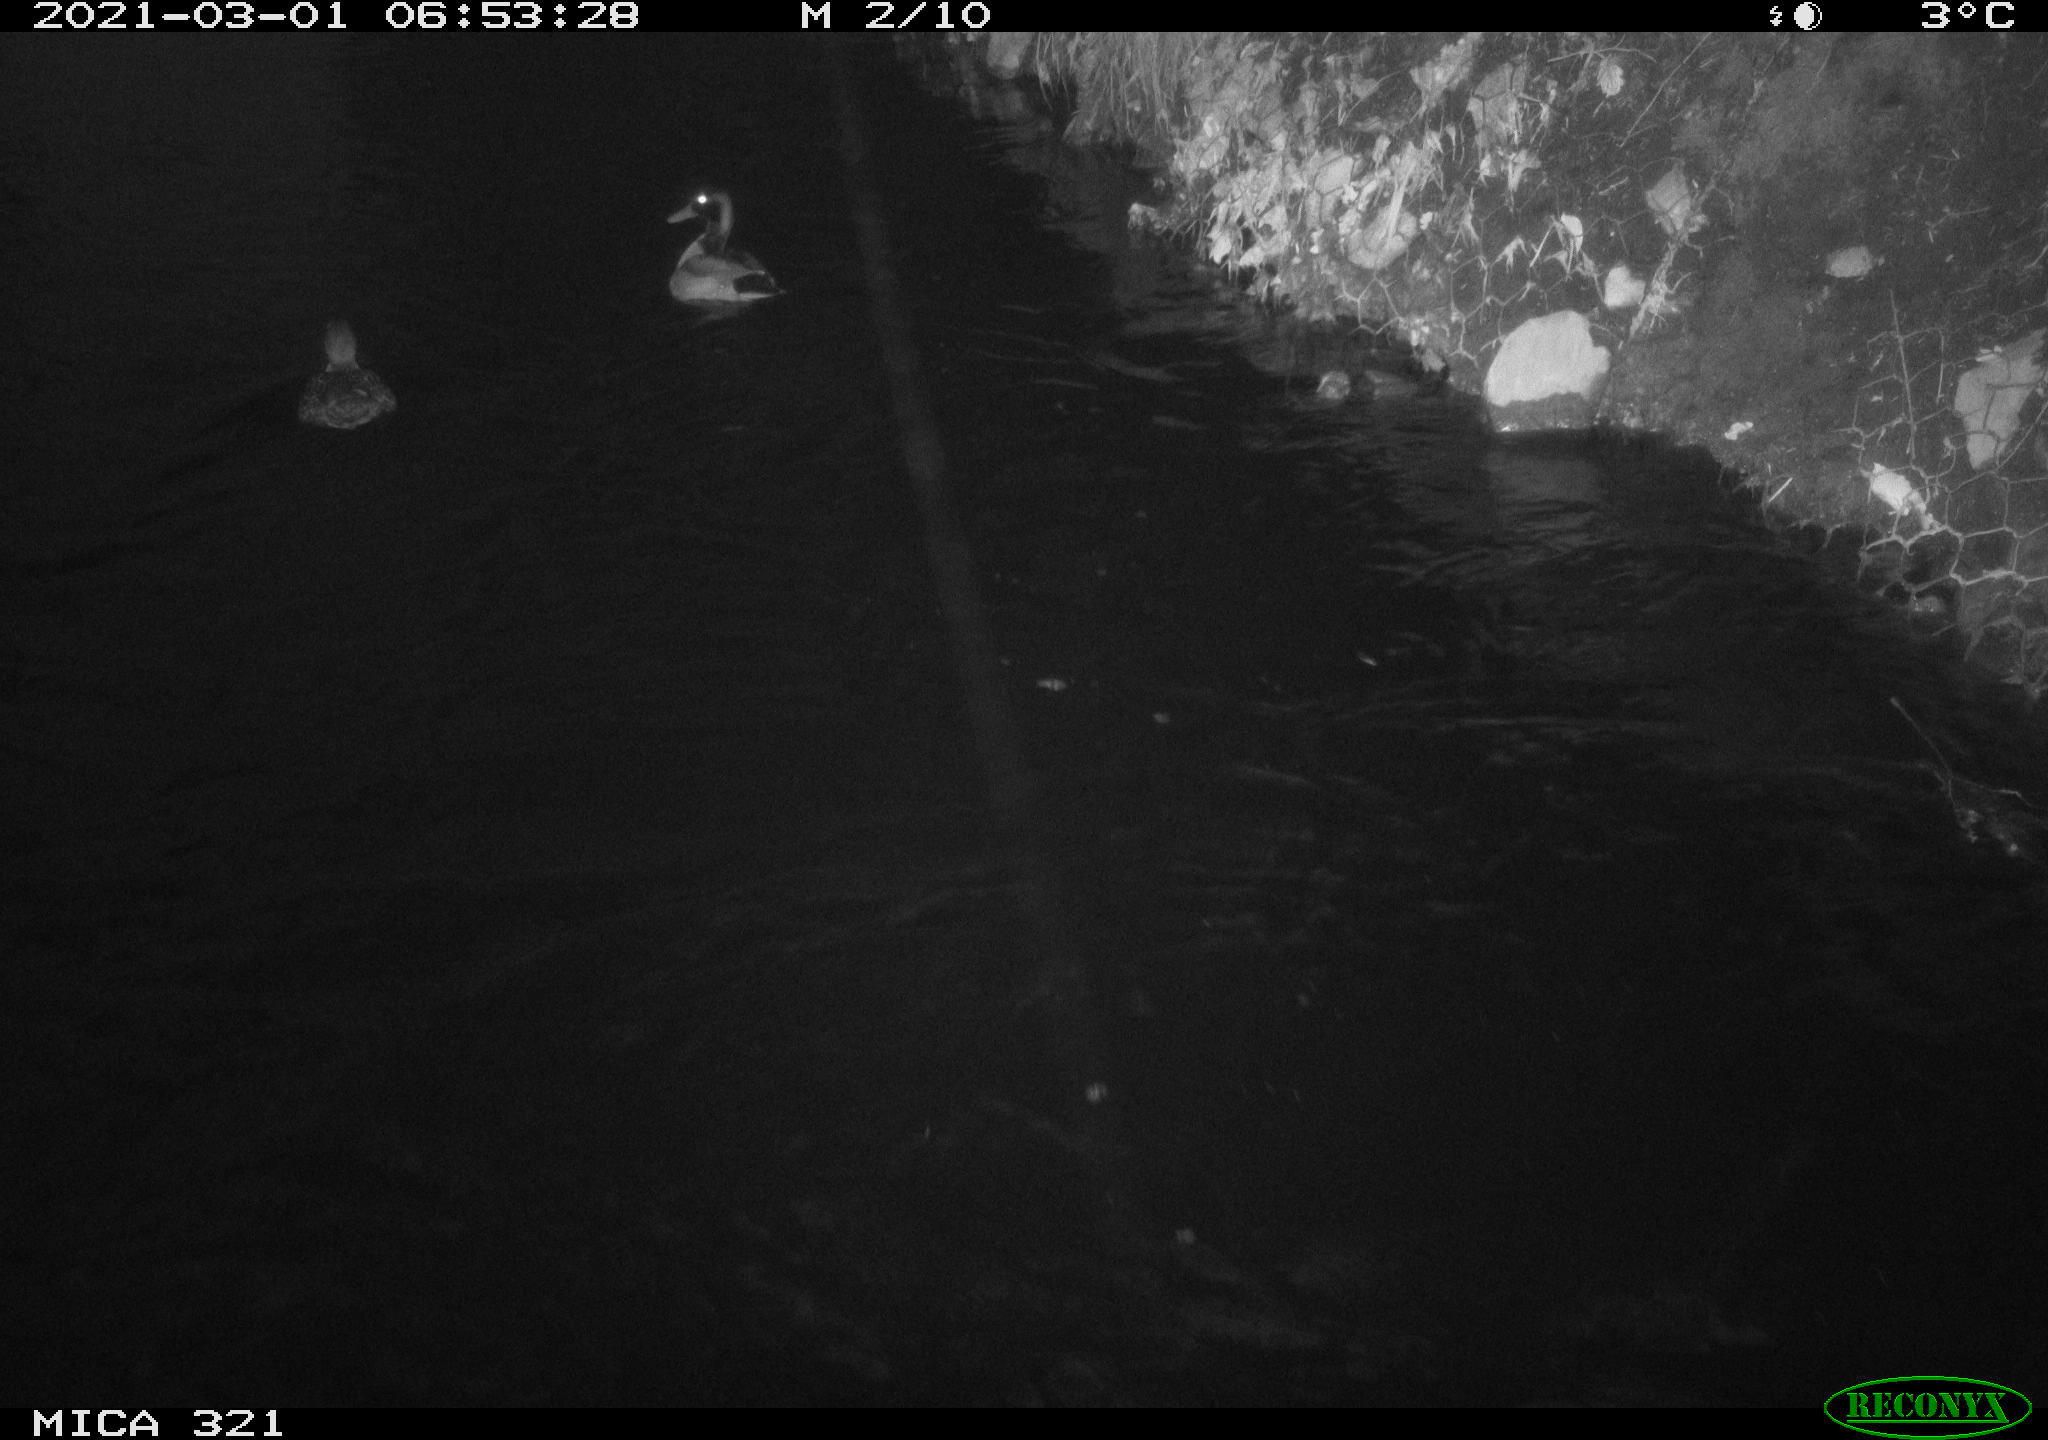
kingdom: Animalia
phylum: Chordata
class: Aves
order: Anseriformes
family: Anatidae
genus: Anas
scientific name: Anas platyrhynchos
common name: Mallard
